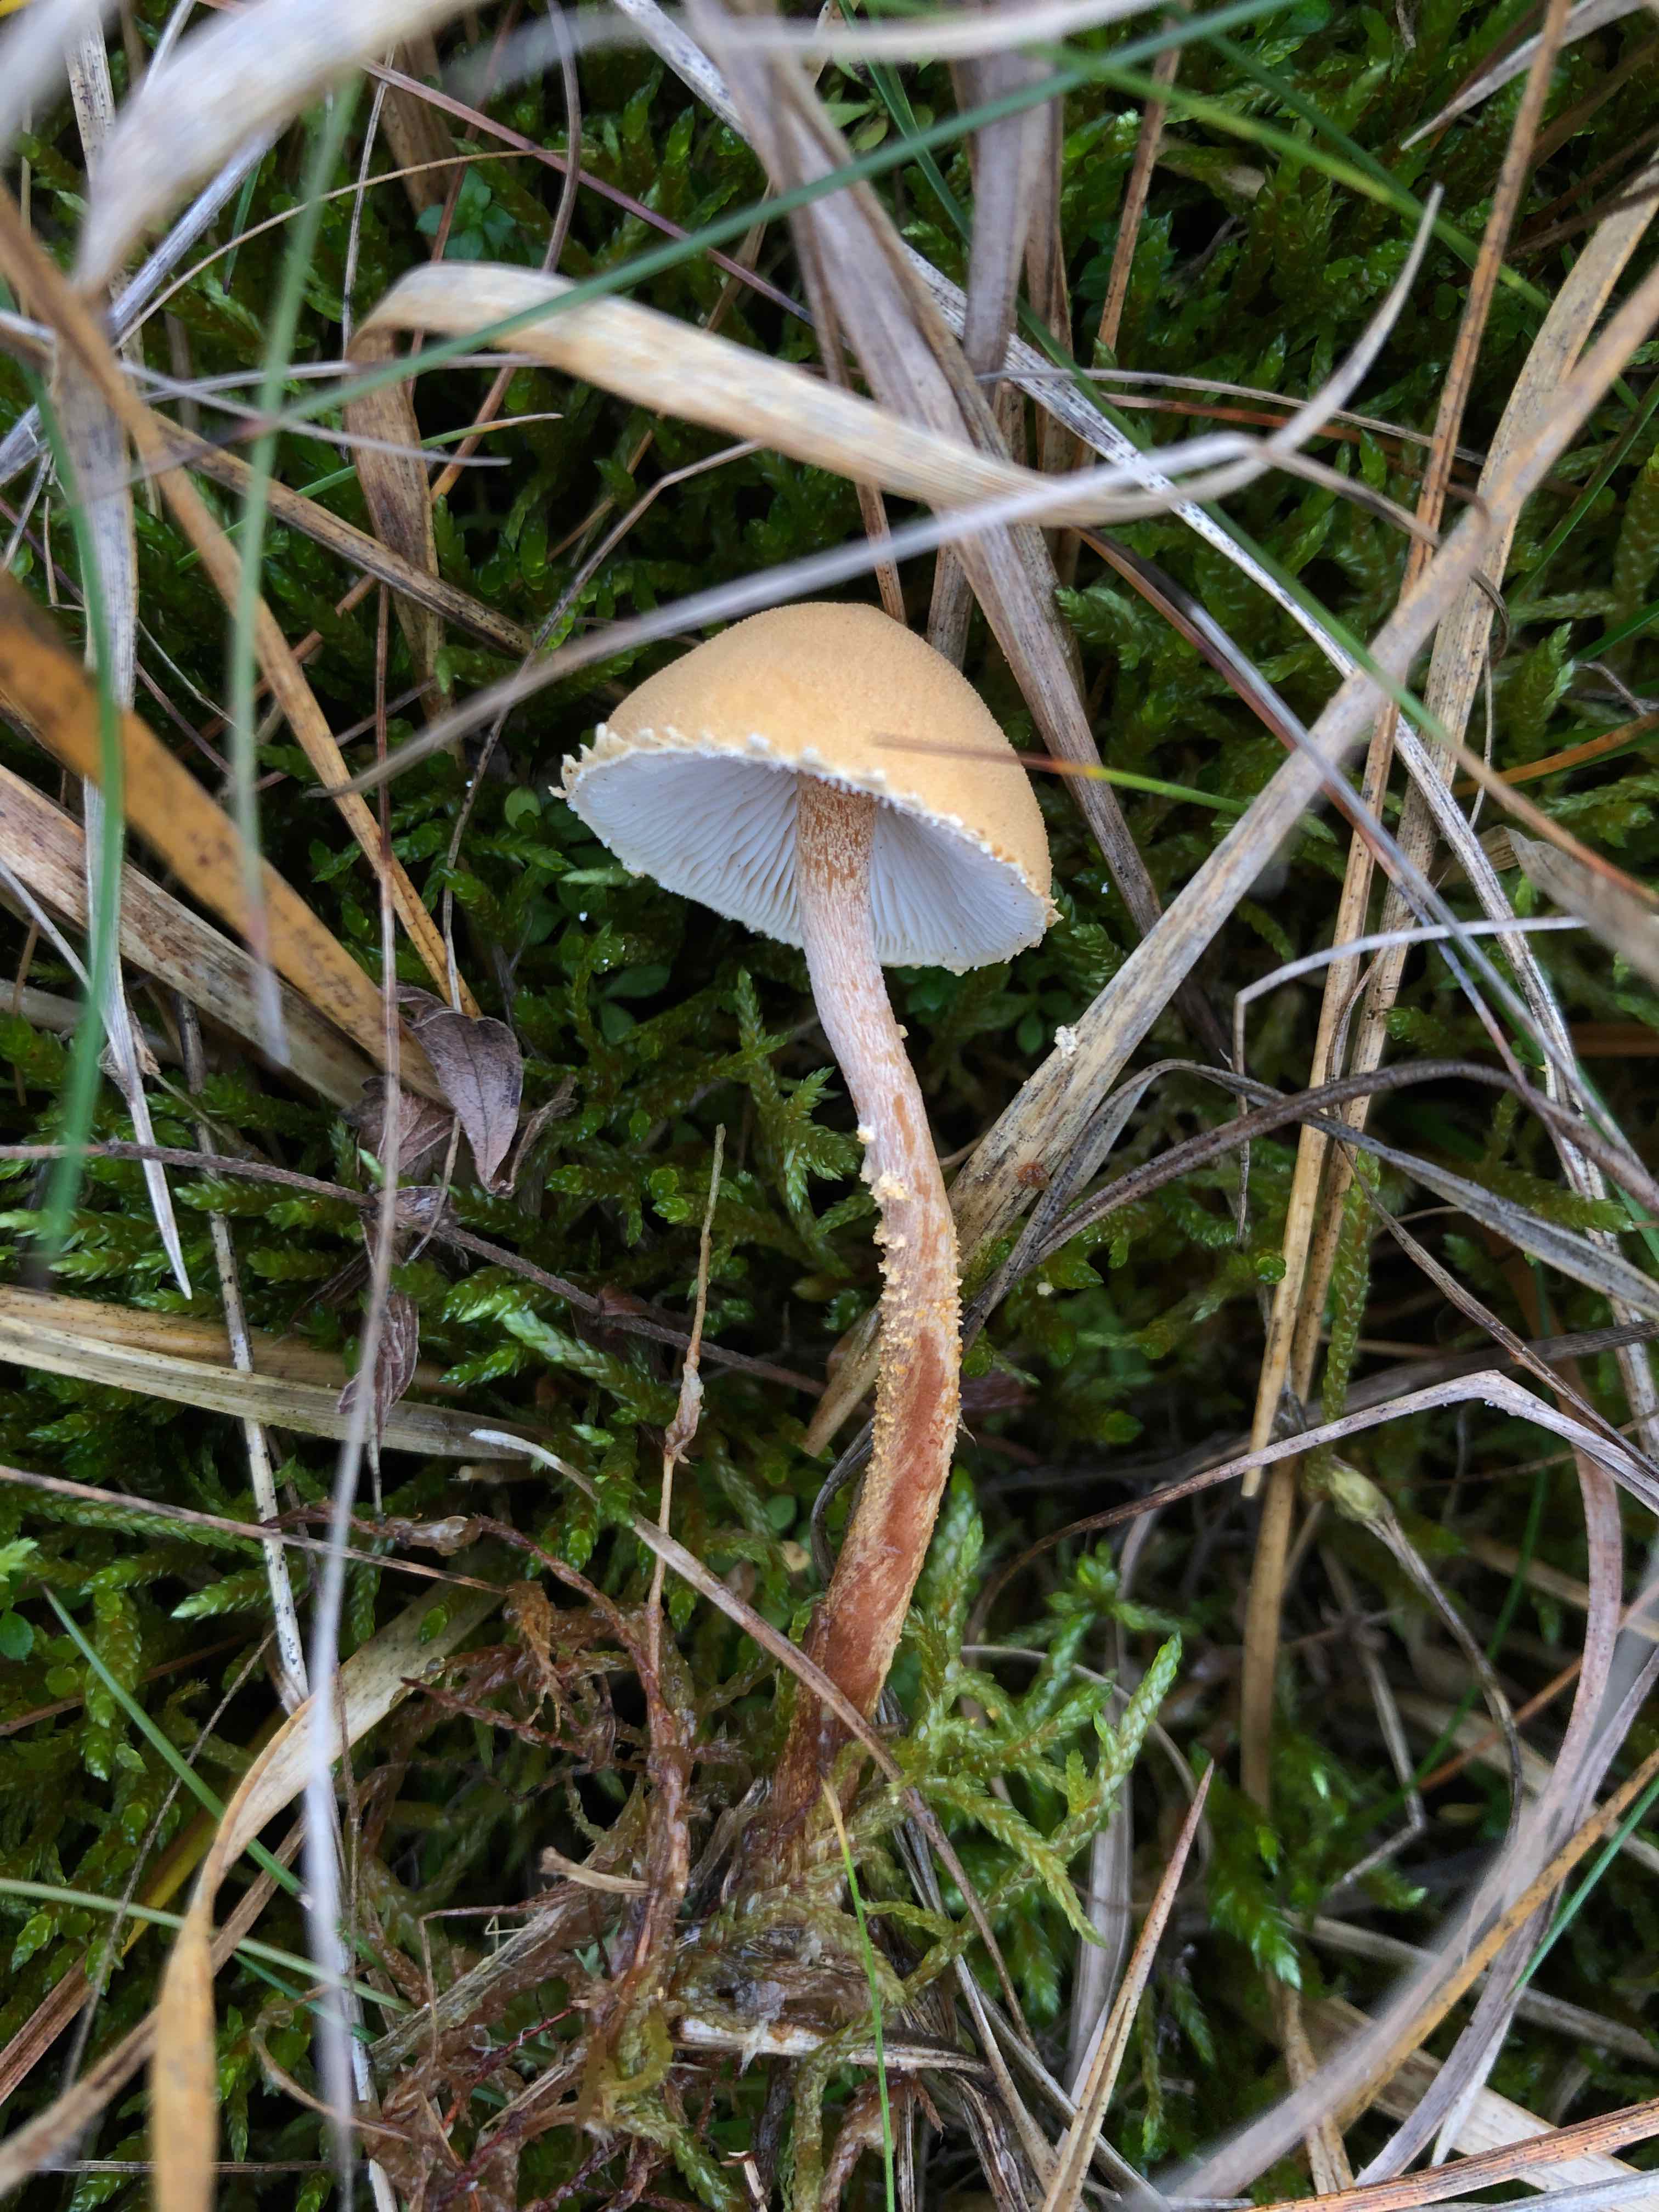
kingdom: Fungi
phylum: Basidiomycota
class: Agaricomycetes
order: Agaricales
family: Tricholomataceae
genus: Cystoderma
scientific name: Cystoderma amianthinum
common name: okkergul grynhat
